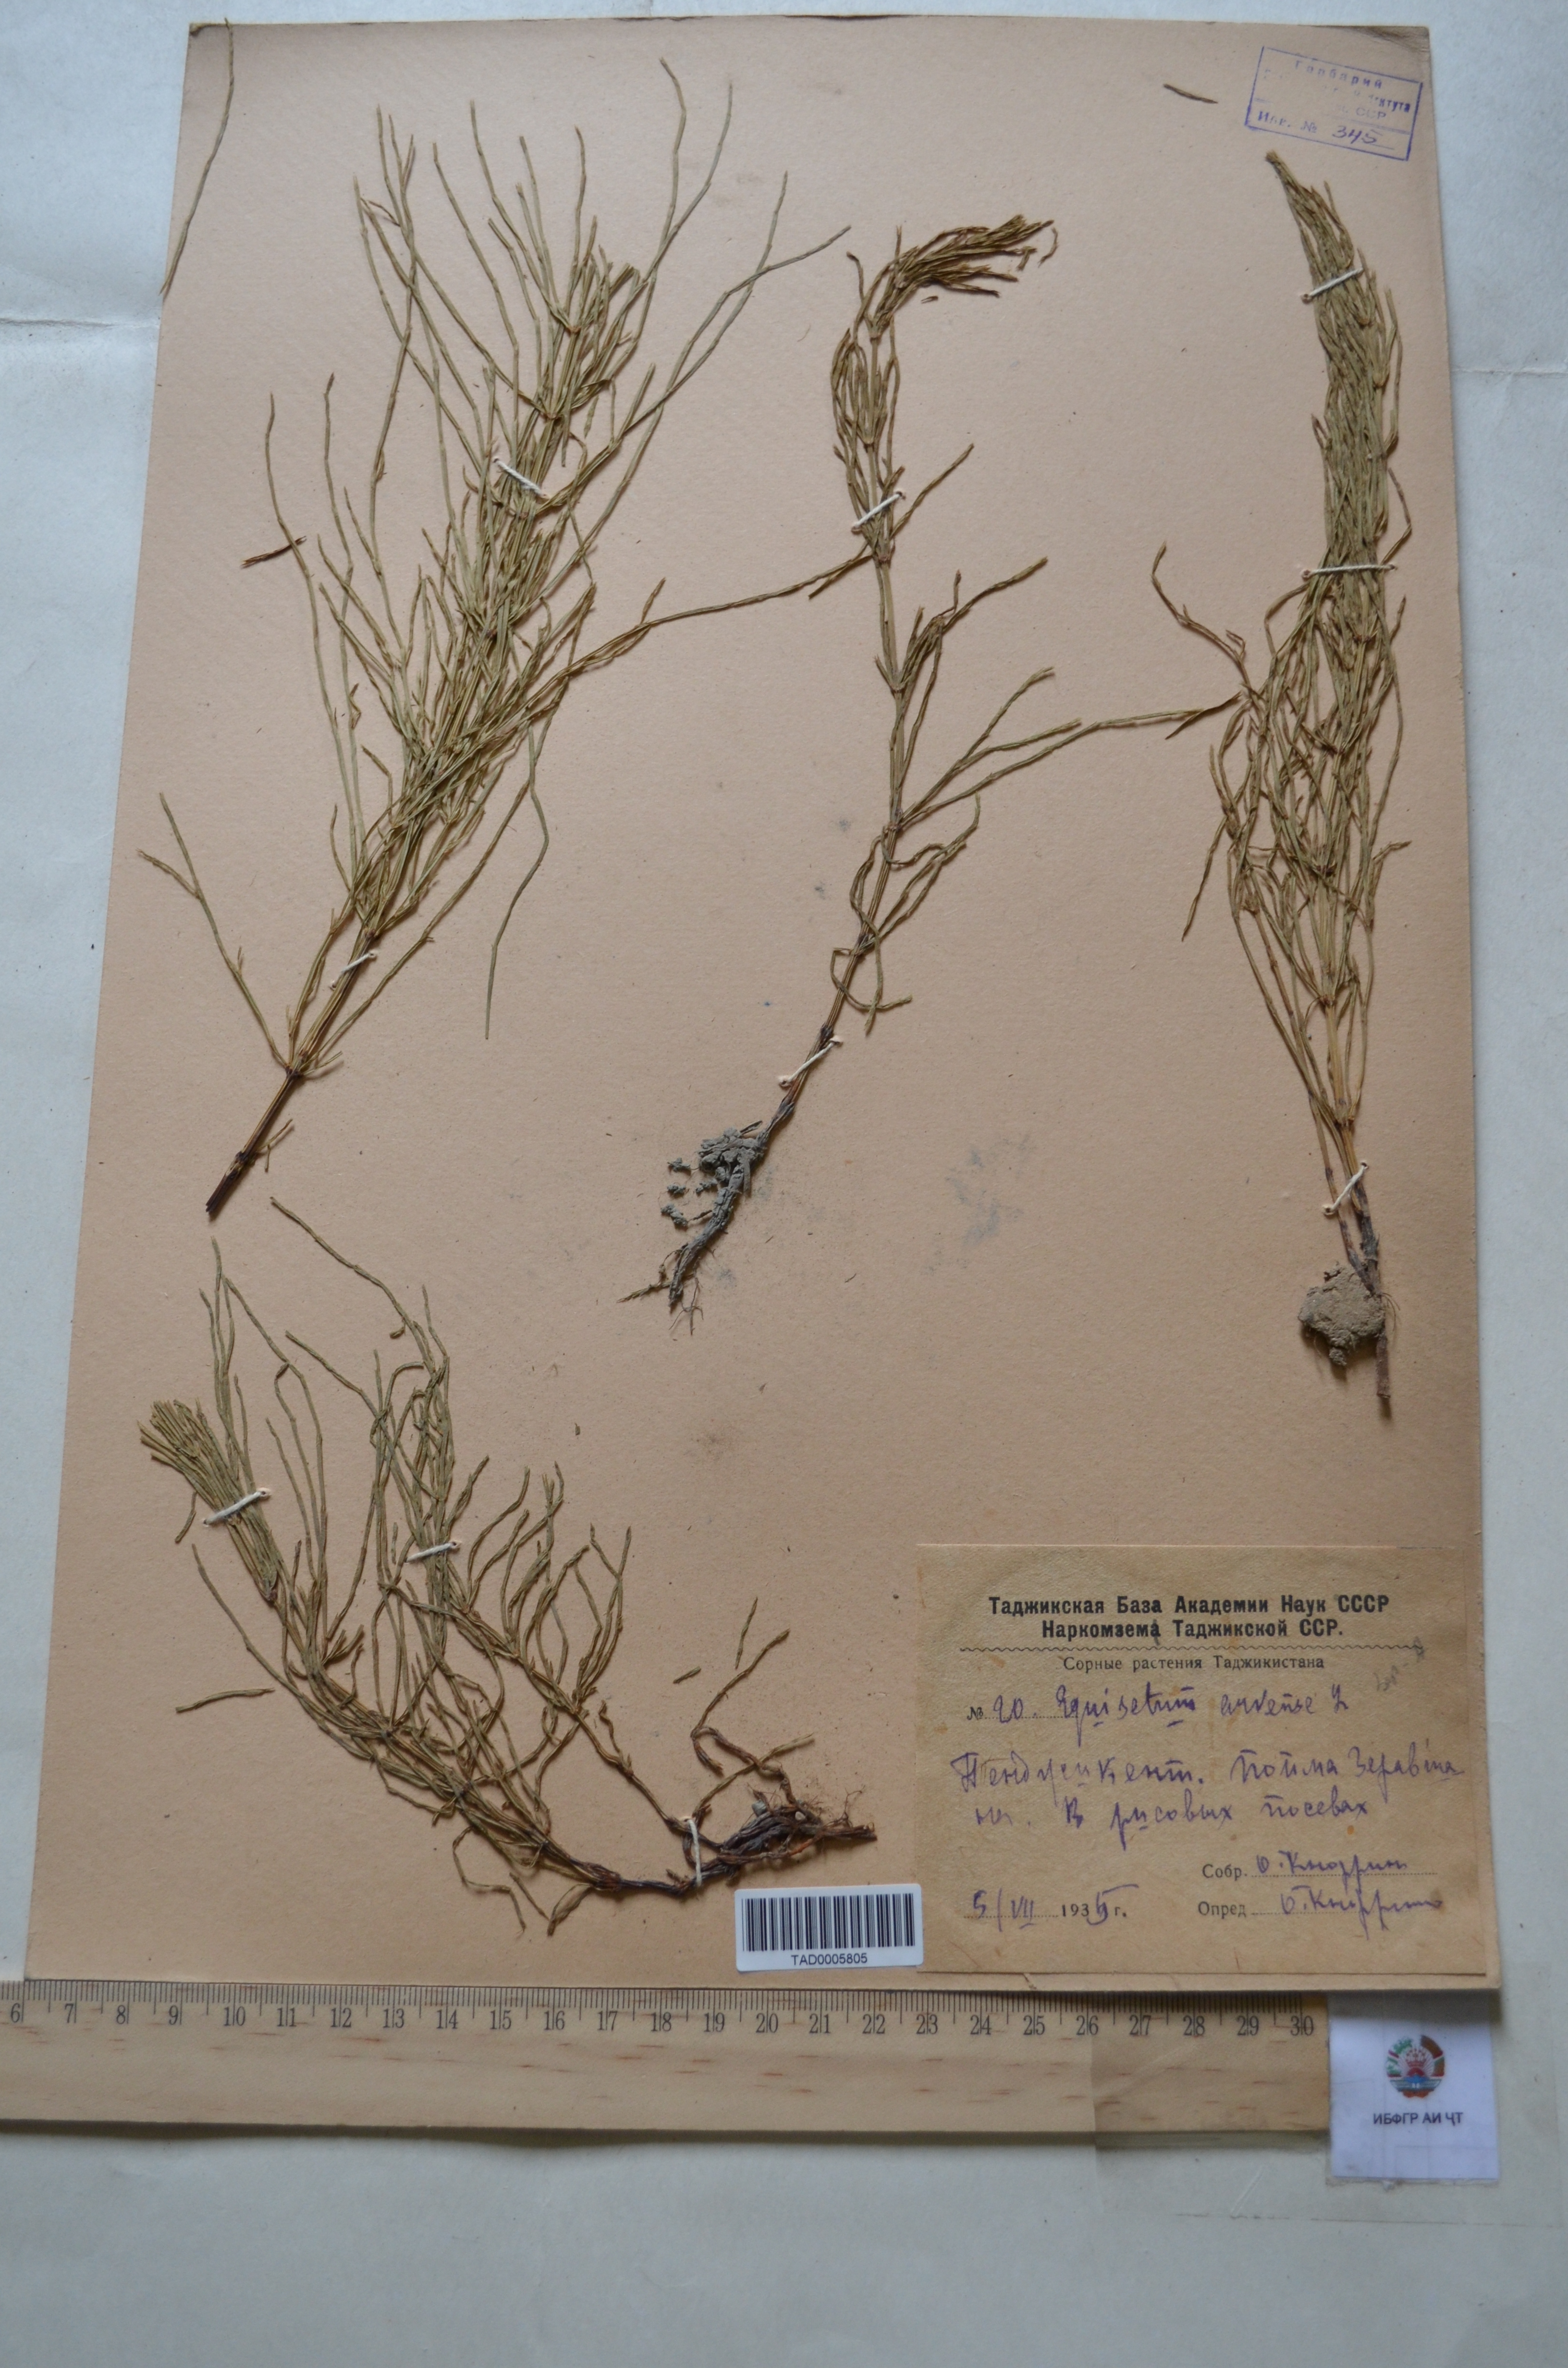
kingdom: Plantae
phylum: Tracheophyta
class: Polypodiopsida
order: Equisetales
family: Equisetaceae
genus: Equisetum
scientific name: Equisetum arvense
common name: Field horsetail
